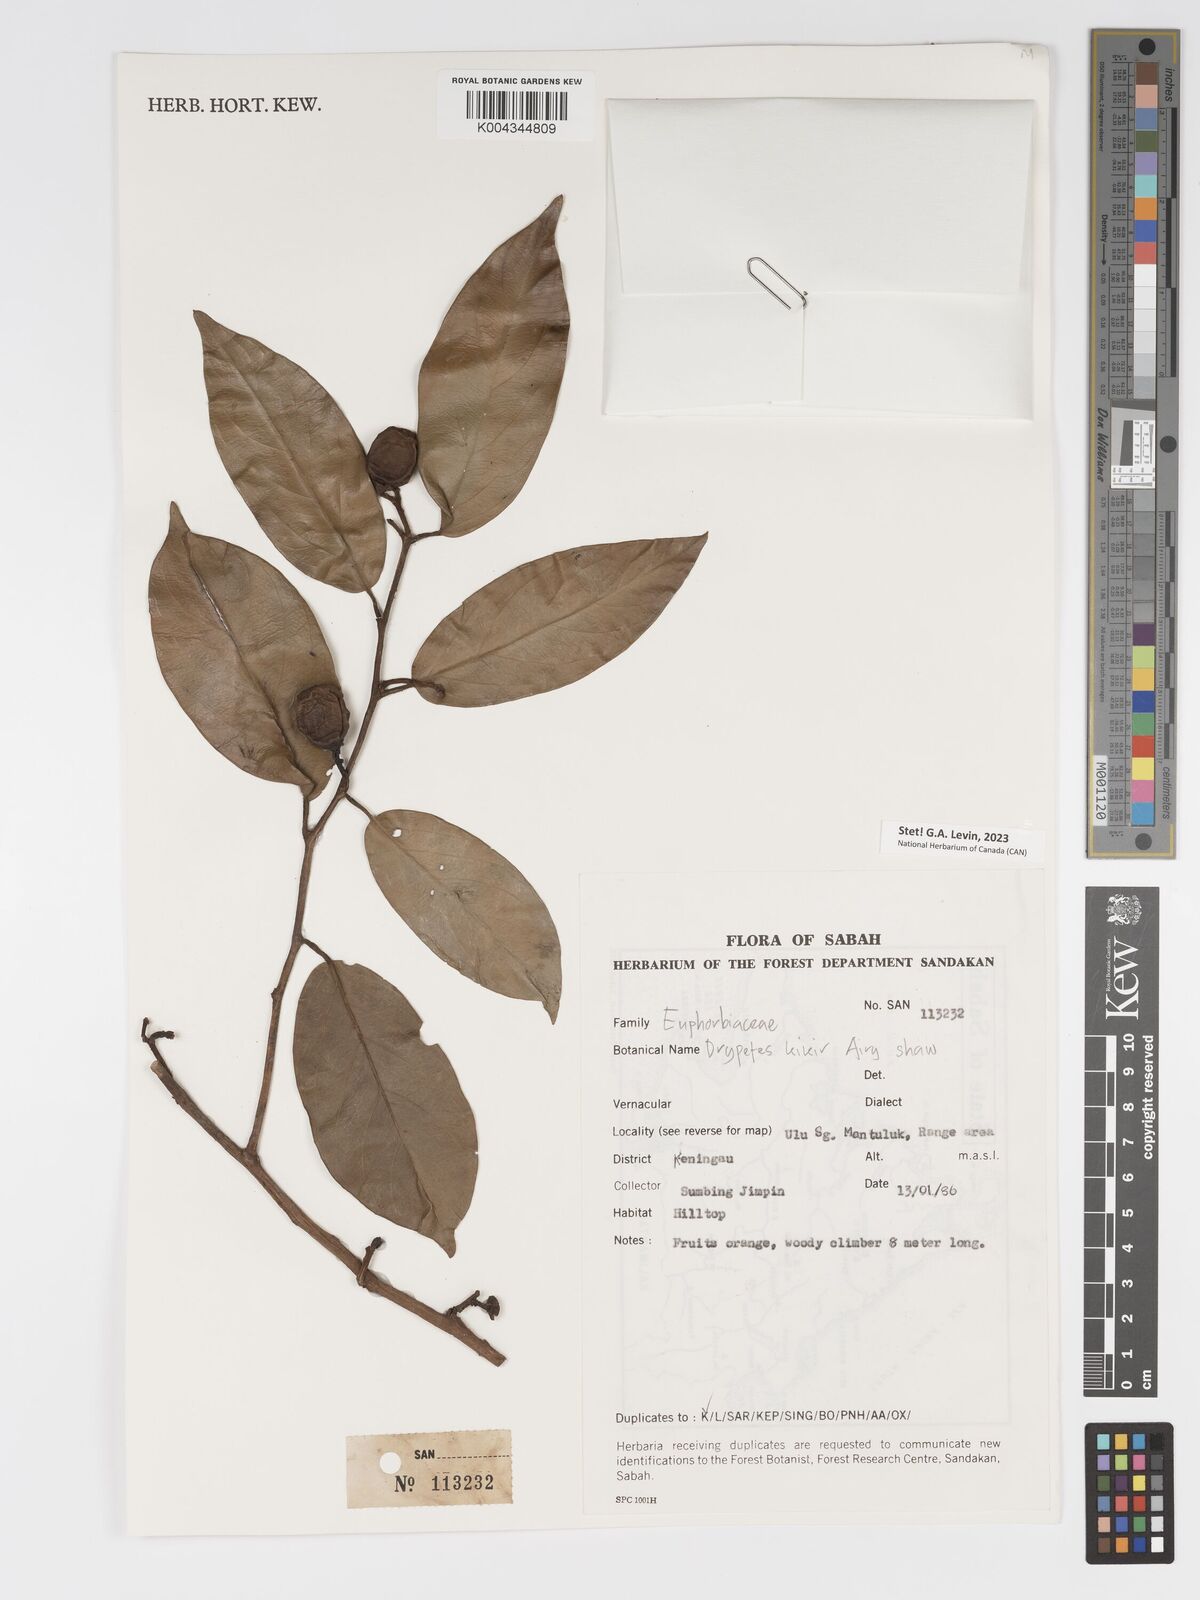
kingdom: Plantae
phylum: Tracheophyta
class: Magnoliopsida
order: Malpighiales
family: Putranjivaceae
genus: Drypetes
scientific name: Drypetes kikir
